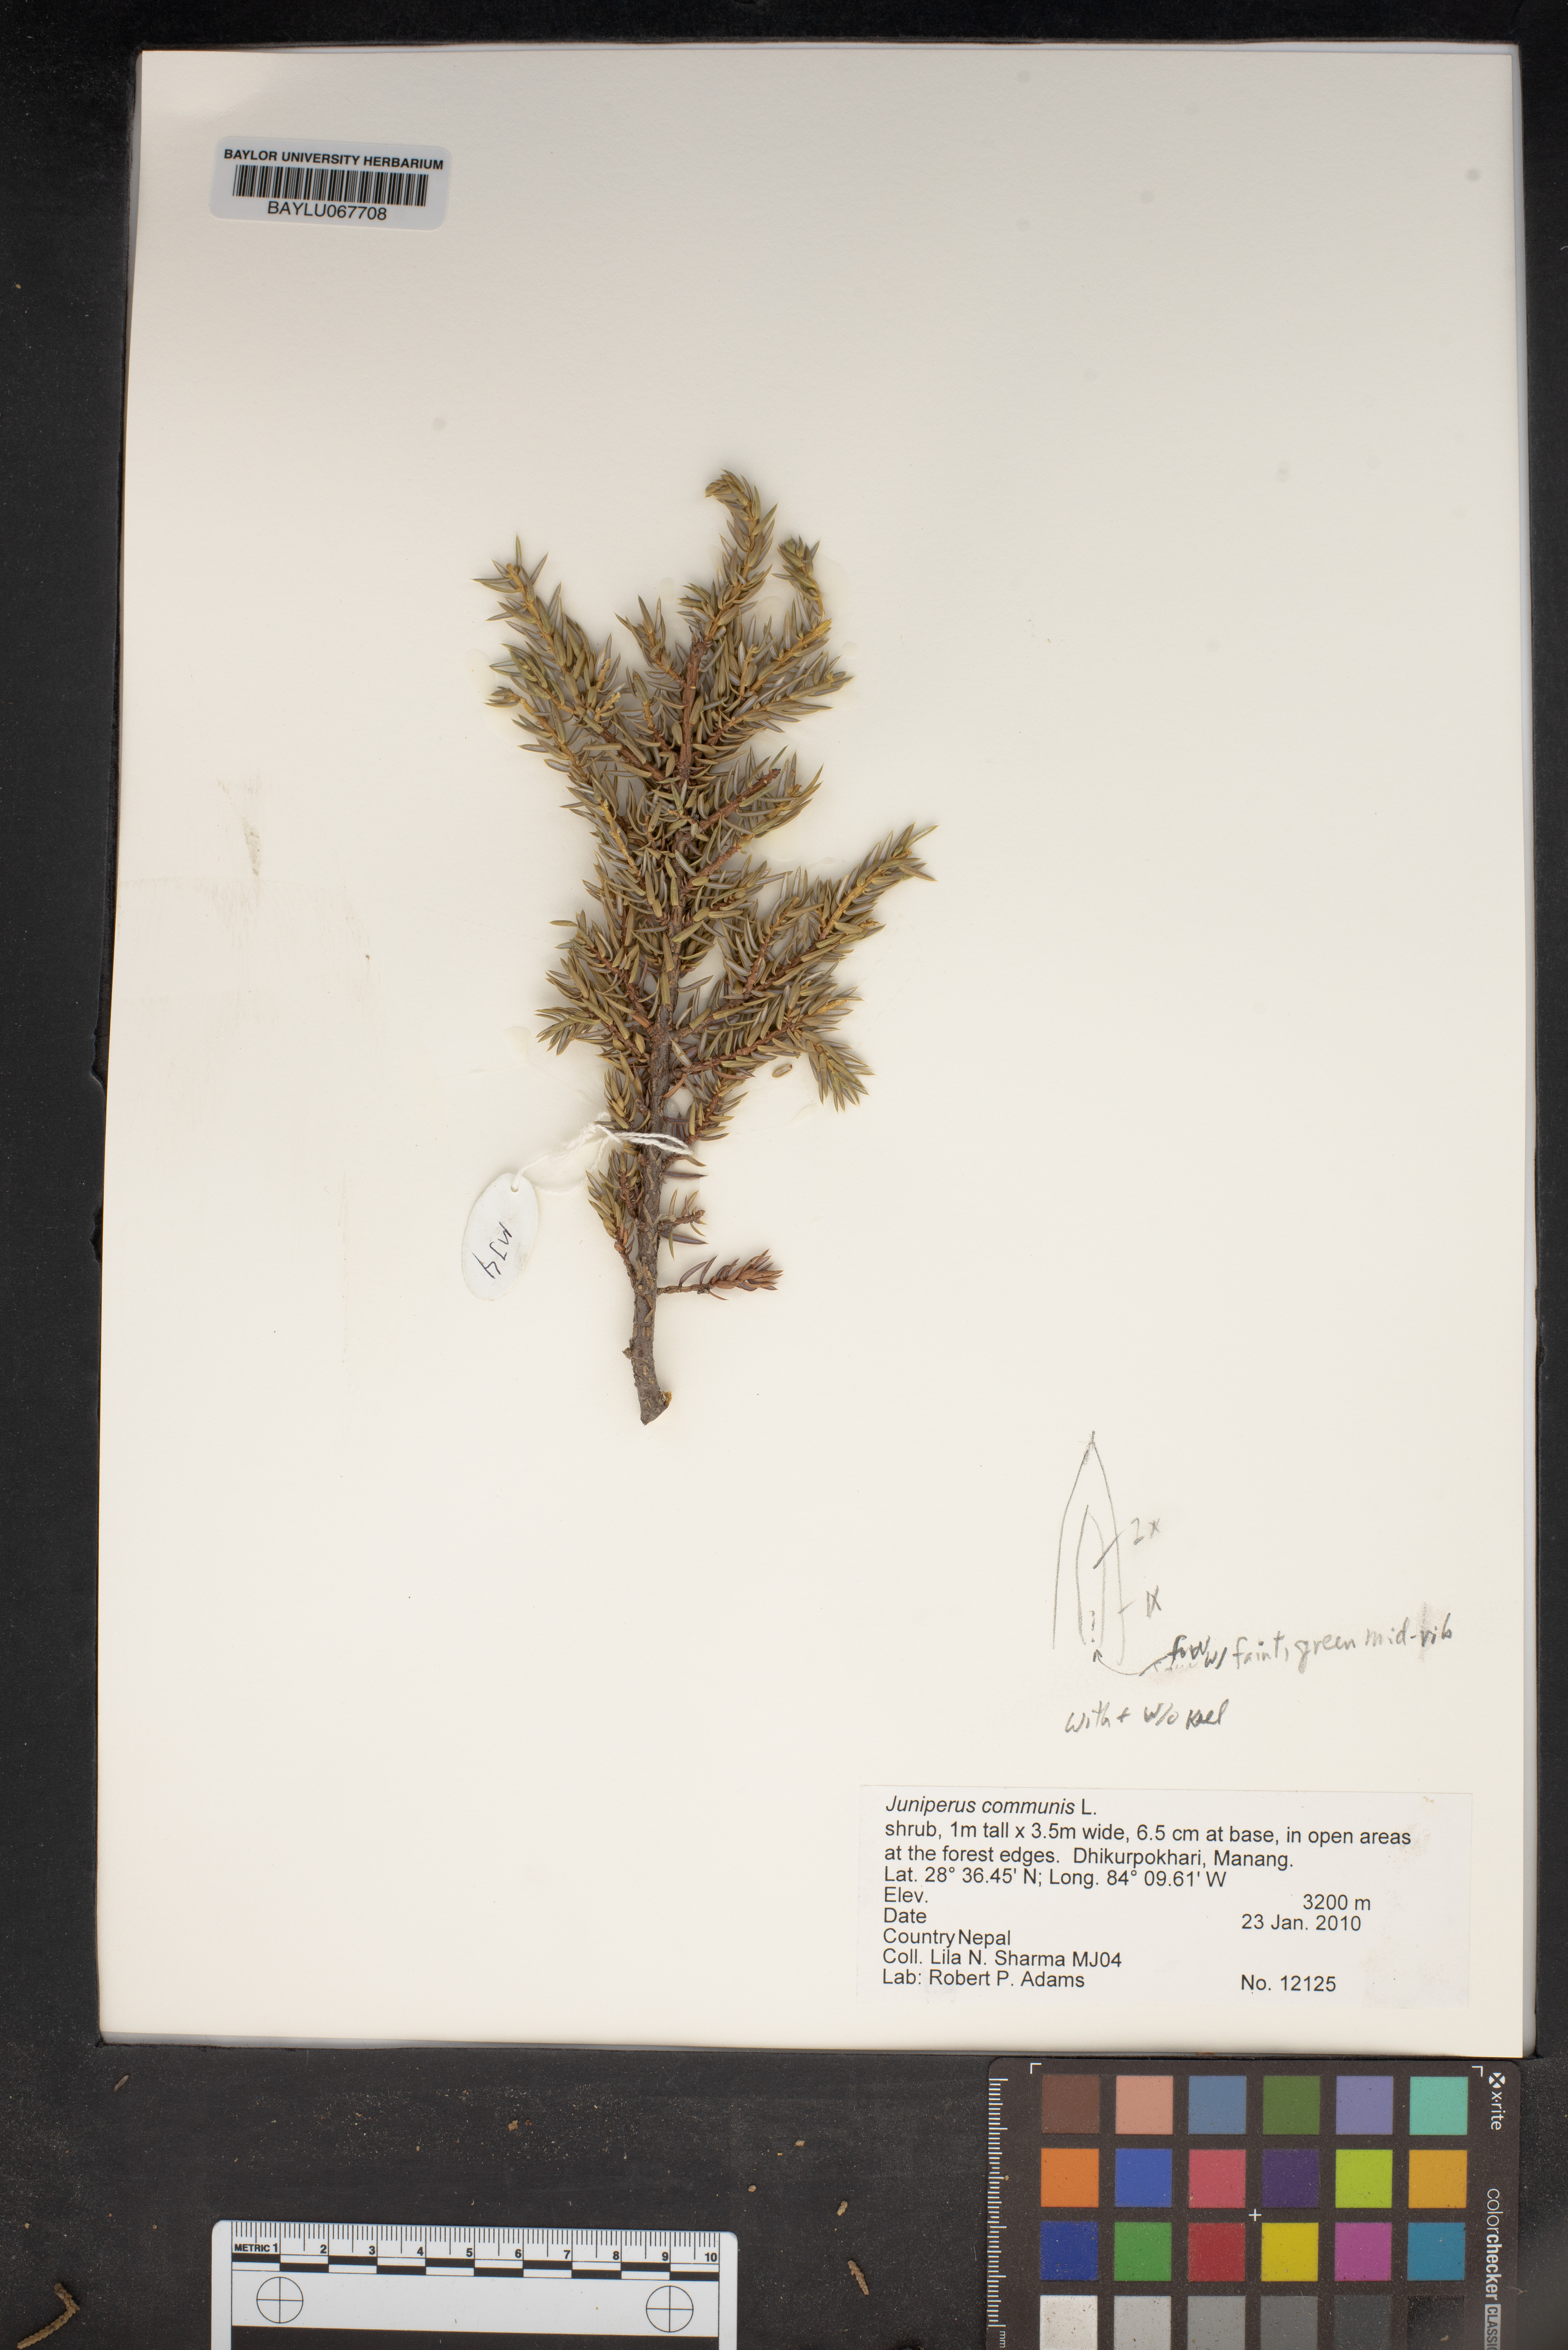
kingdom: Plantae
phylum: Tracheophyta
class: Pinopsida
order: Pinales
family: Cupressaceae
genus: Juniperus
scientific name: Juniperus communis
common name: Common juniper
